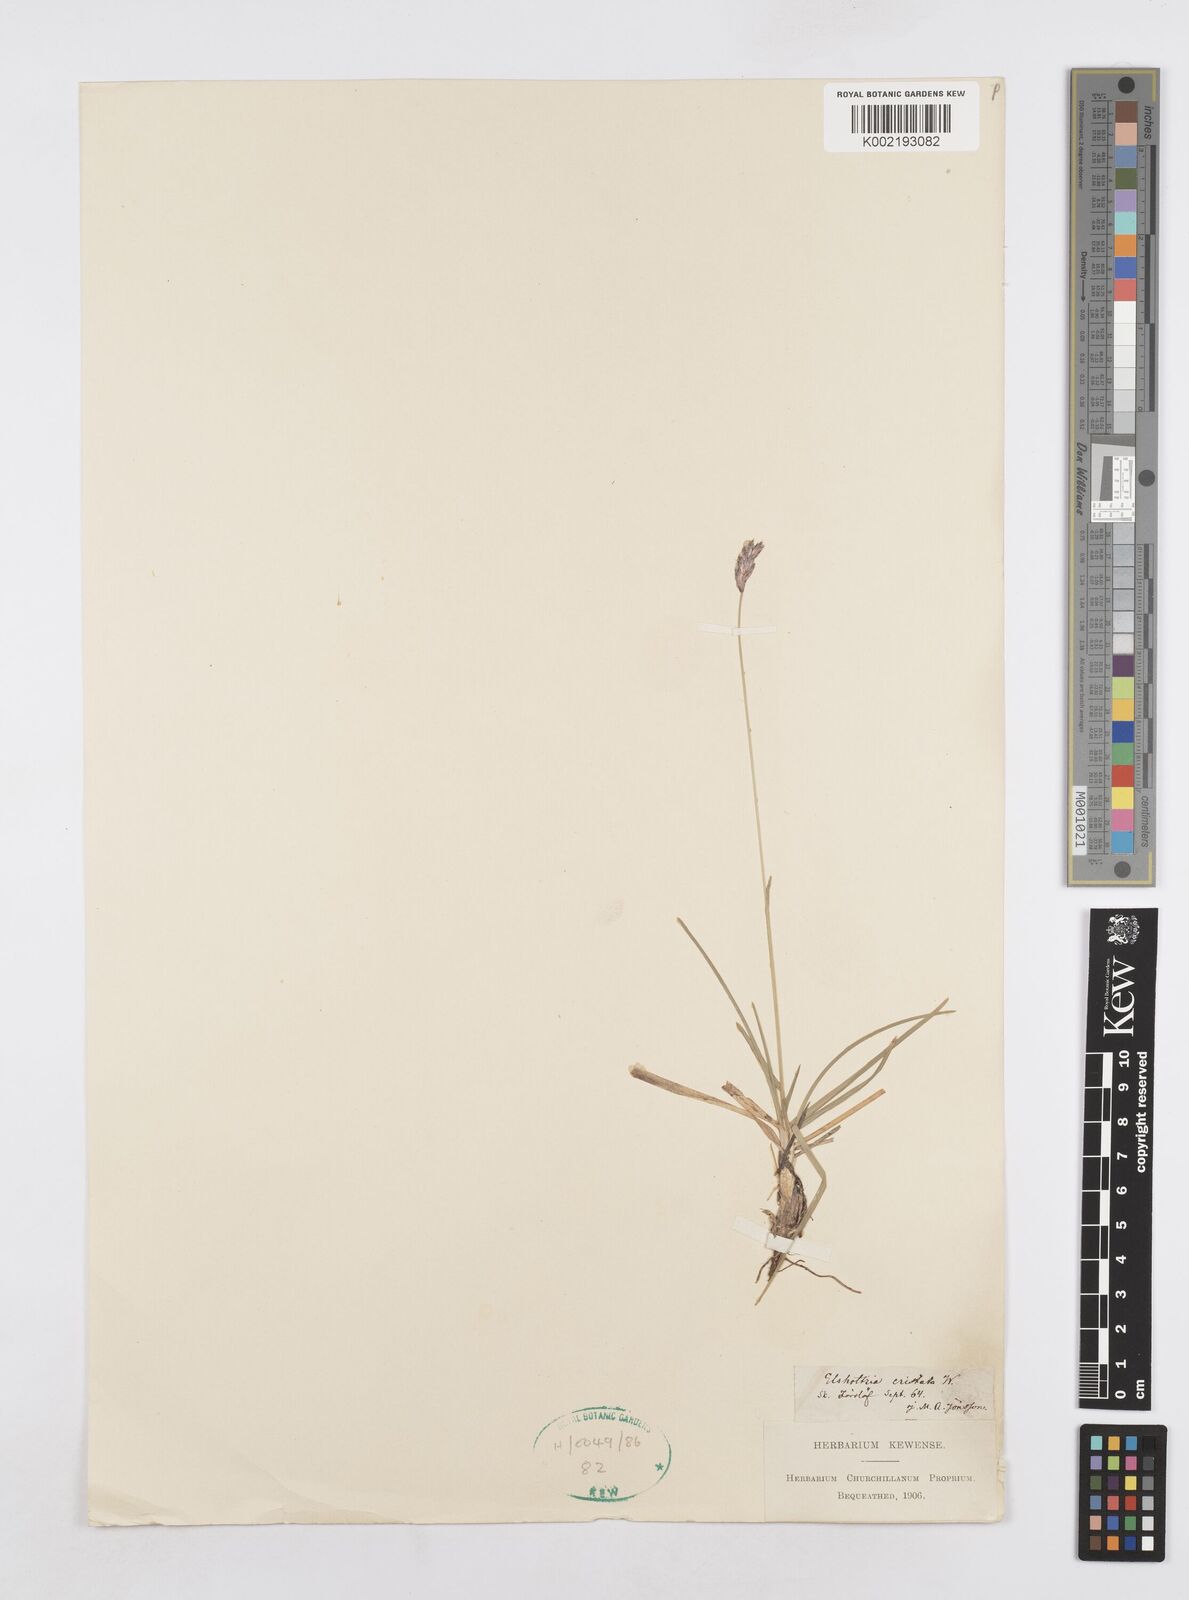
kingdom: Plantae
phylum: Tracheophyta
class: Liliopsida
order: Poales
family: Poaceae
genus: Sesleria
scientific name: Sesleria
